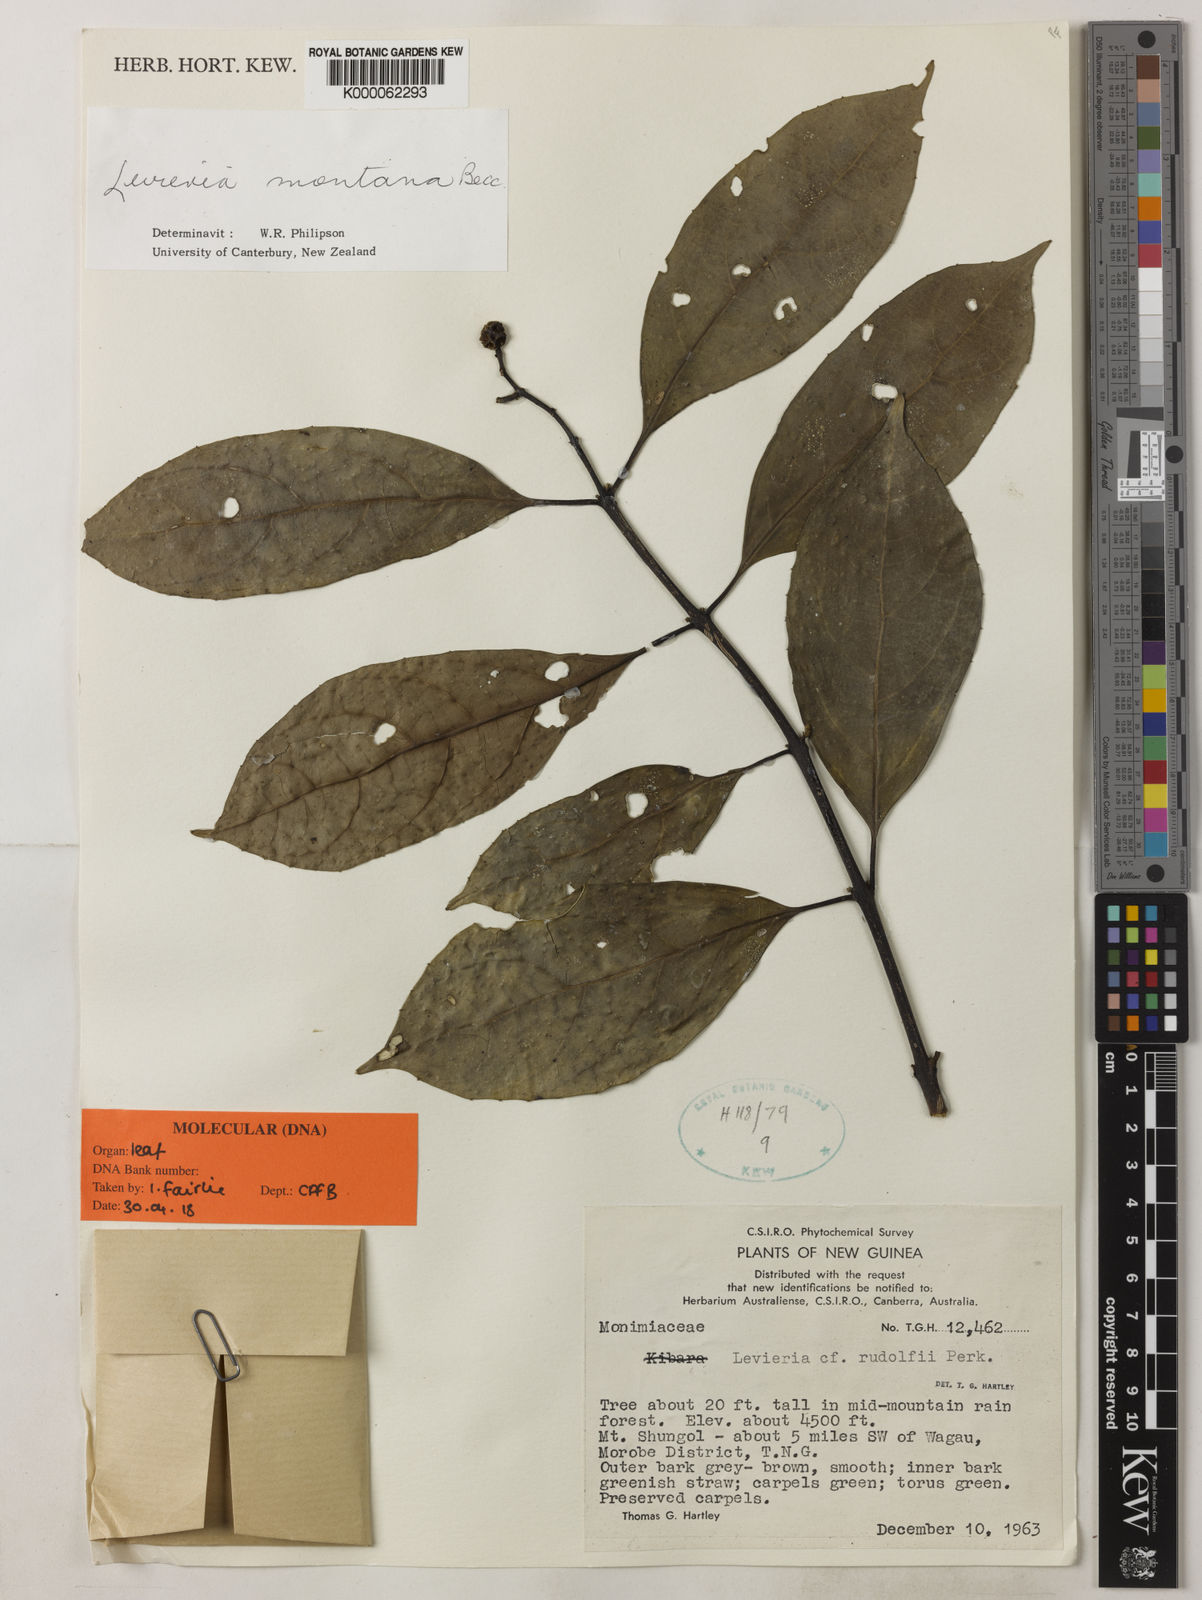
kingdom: Plantae
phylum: Tracheophyta
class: Magnoliopsida
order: Laurales
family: Monimiaceae
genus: Levieria
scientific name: Levieria montana
